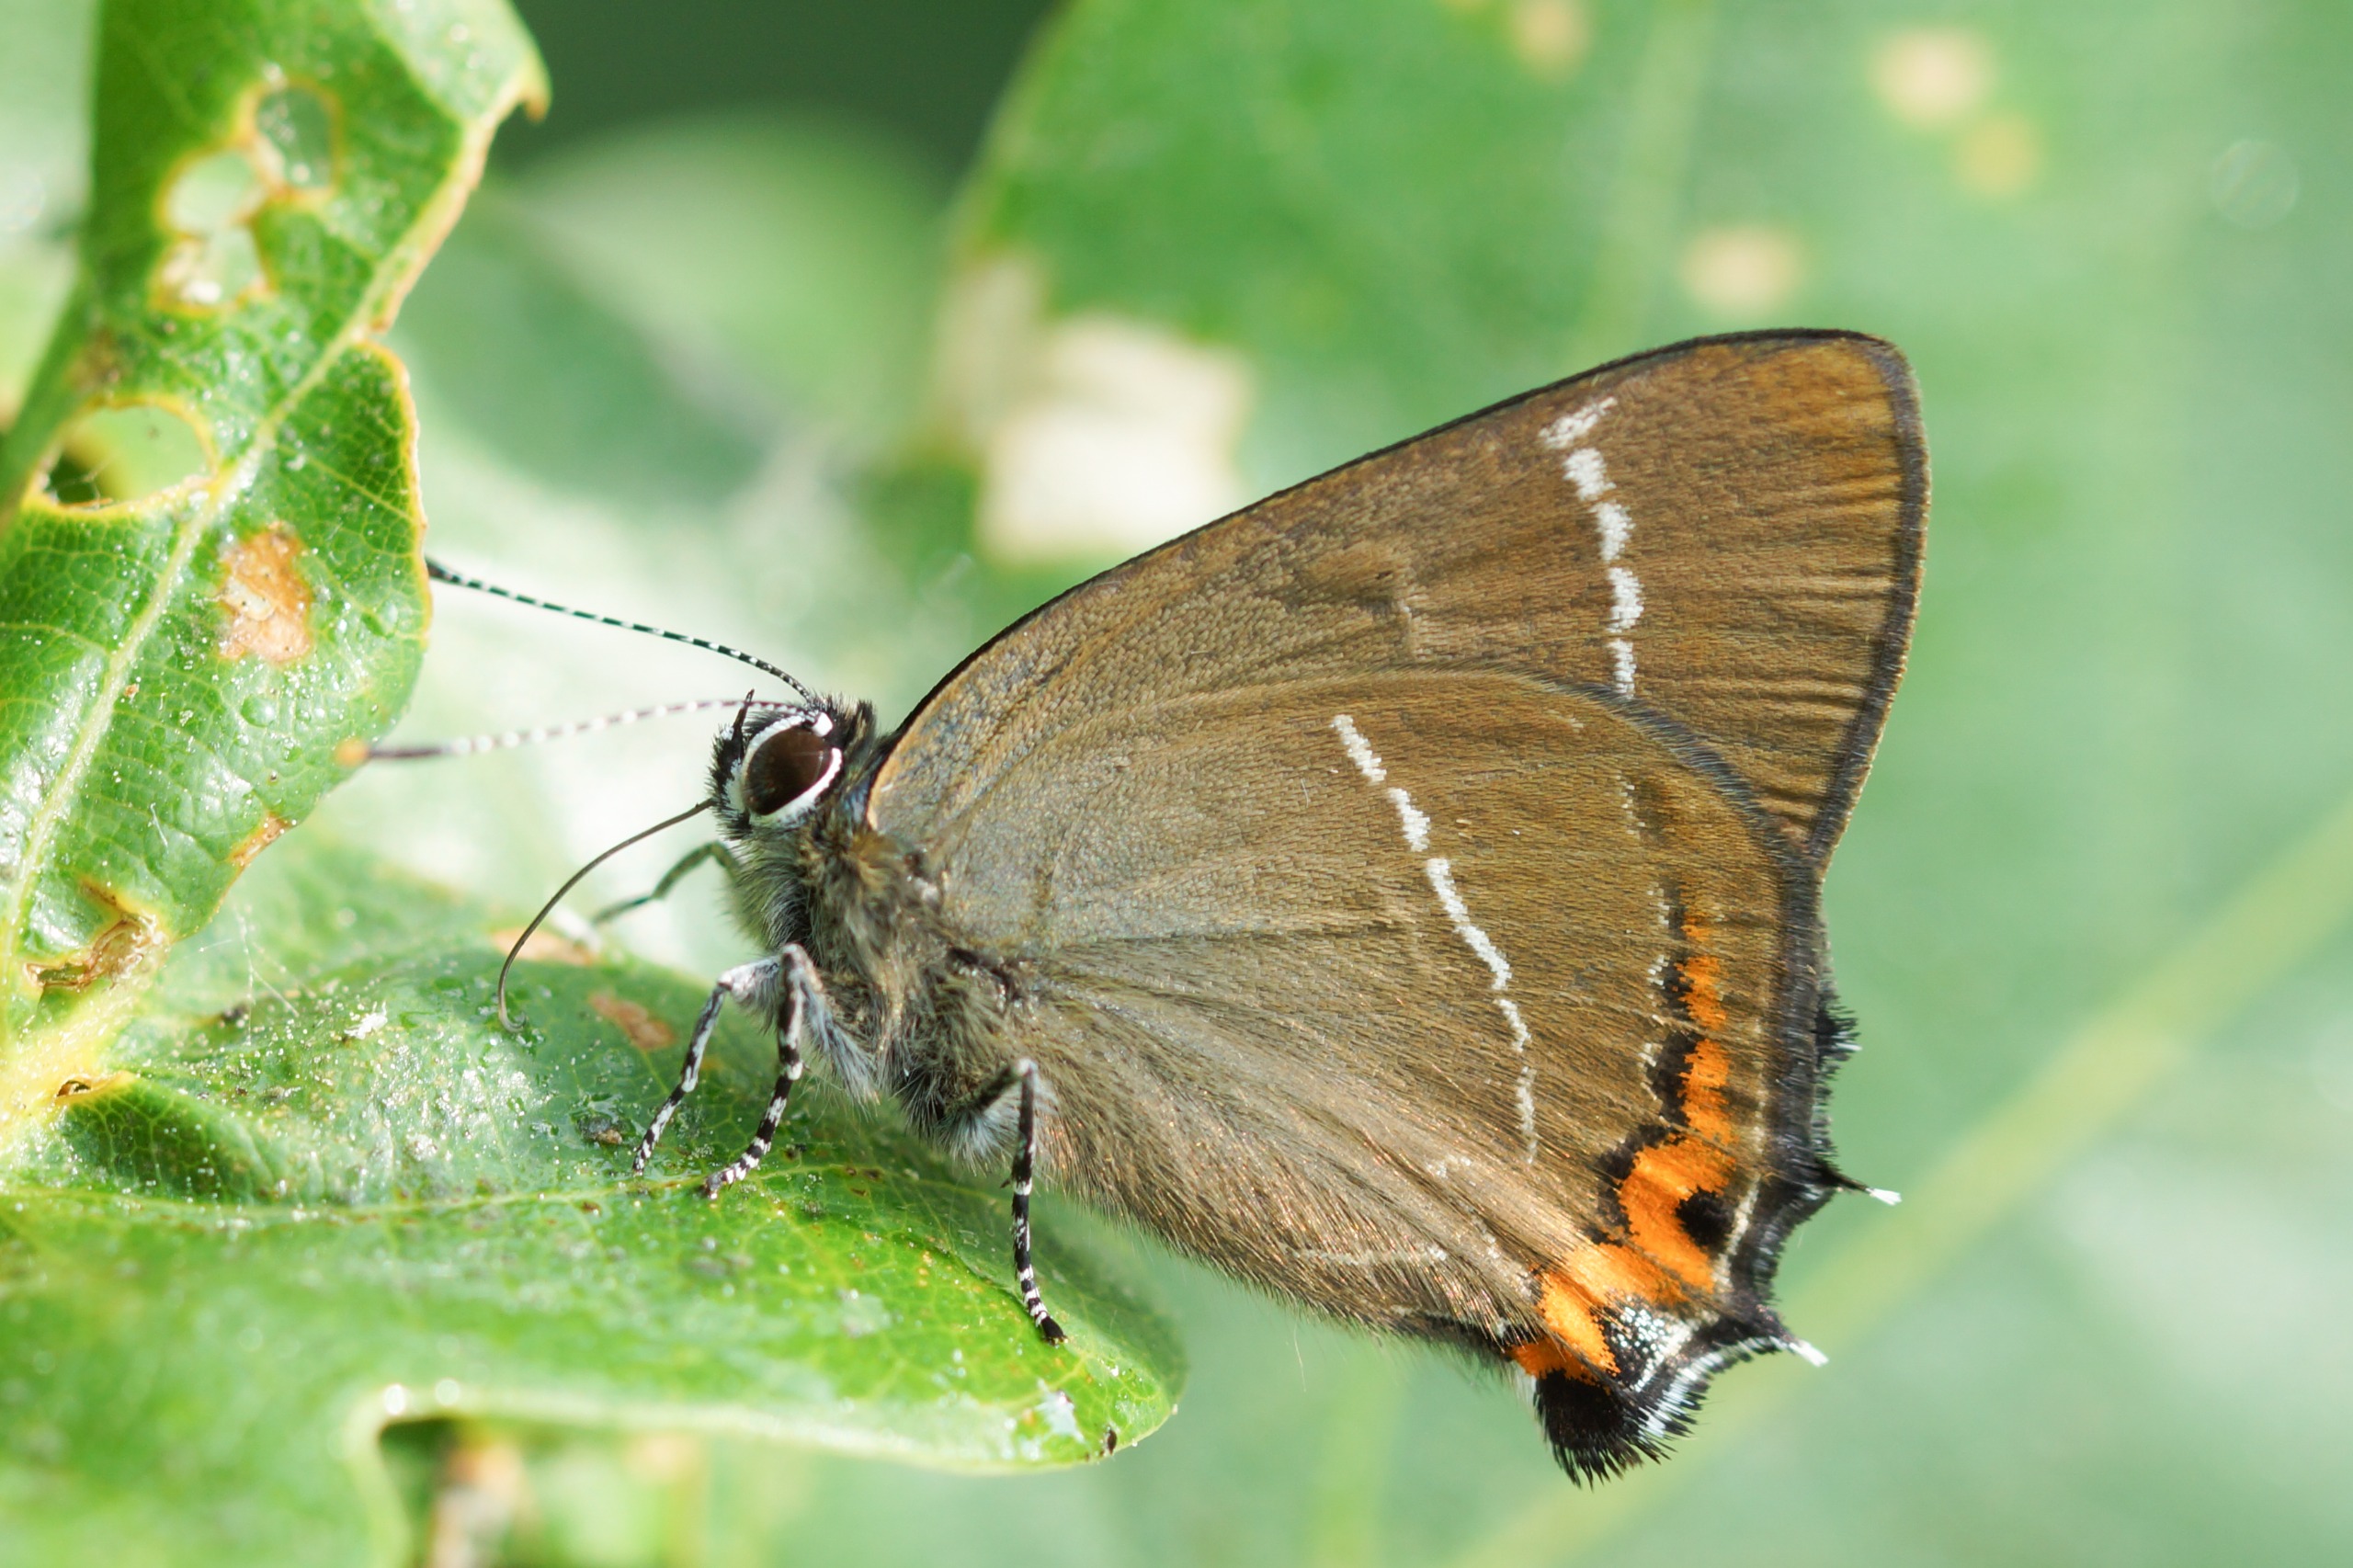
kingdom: Animalia
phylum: Arthropoda
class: Insecta
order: Lepidoptera
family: Lycaenidae
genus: Satyrium
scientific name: Satyrium w-album
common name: Det hvide W
